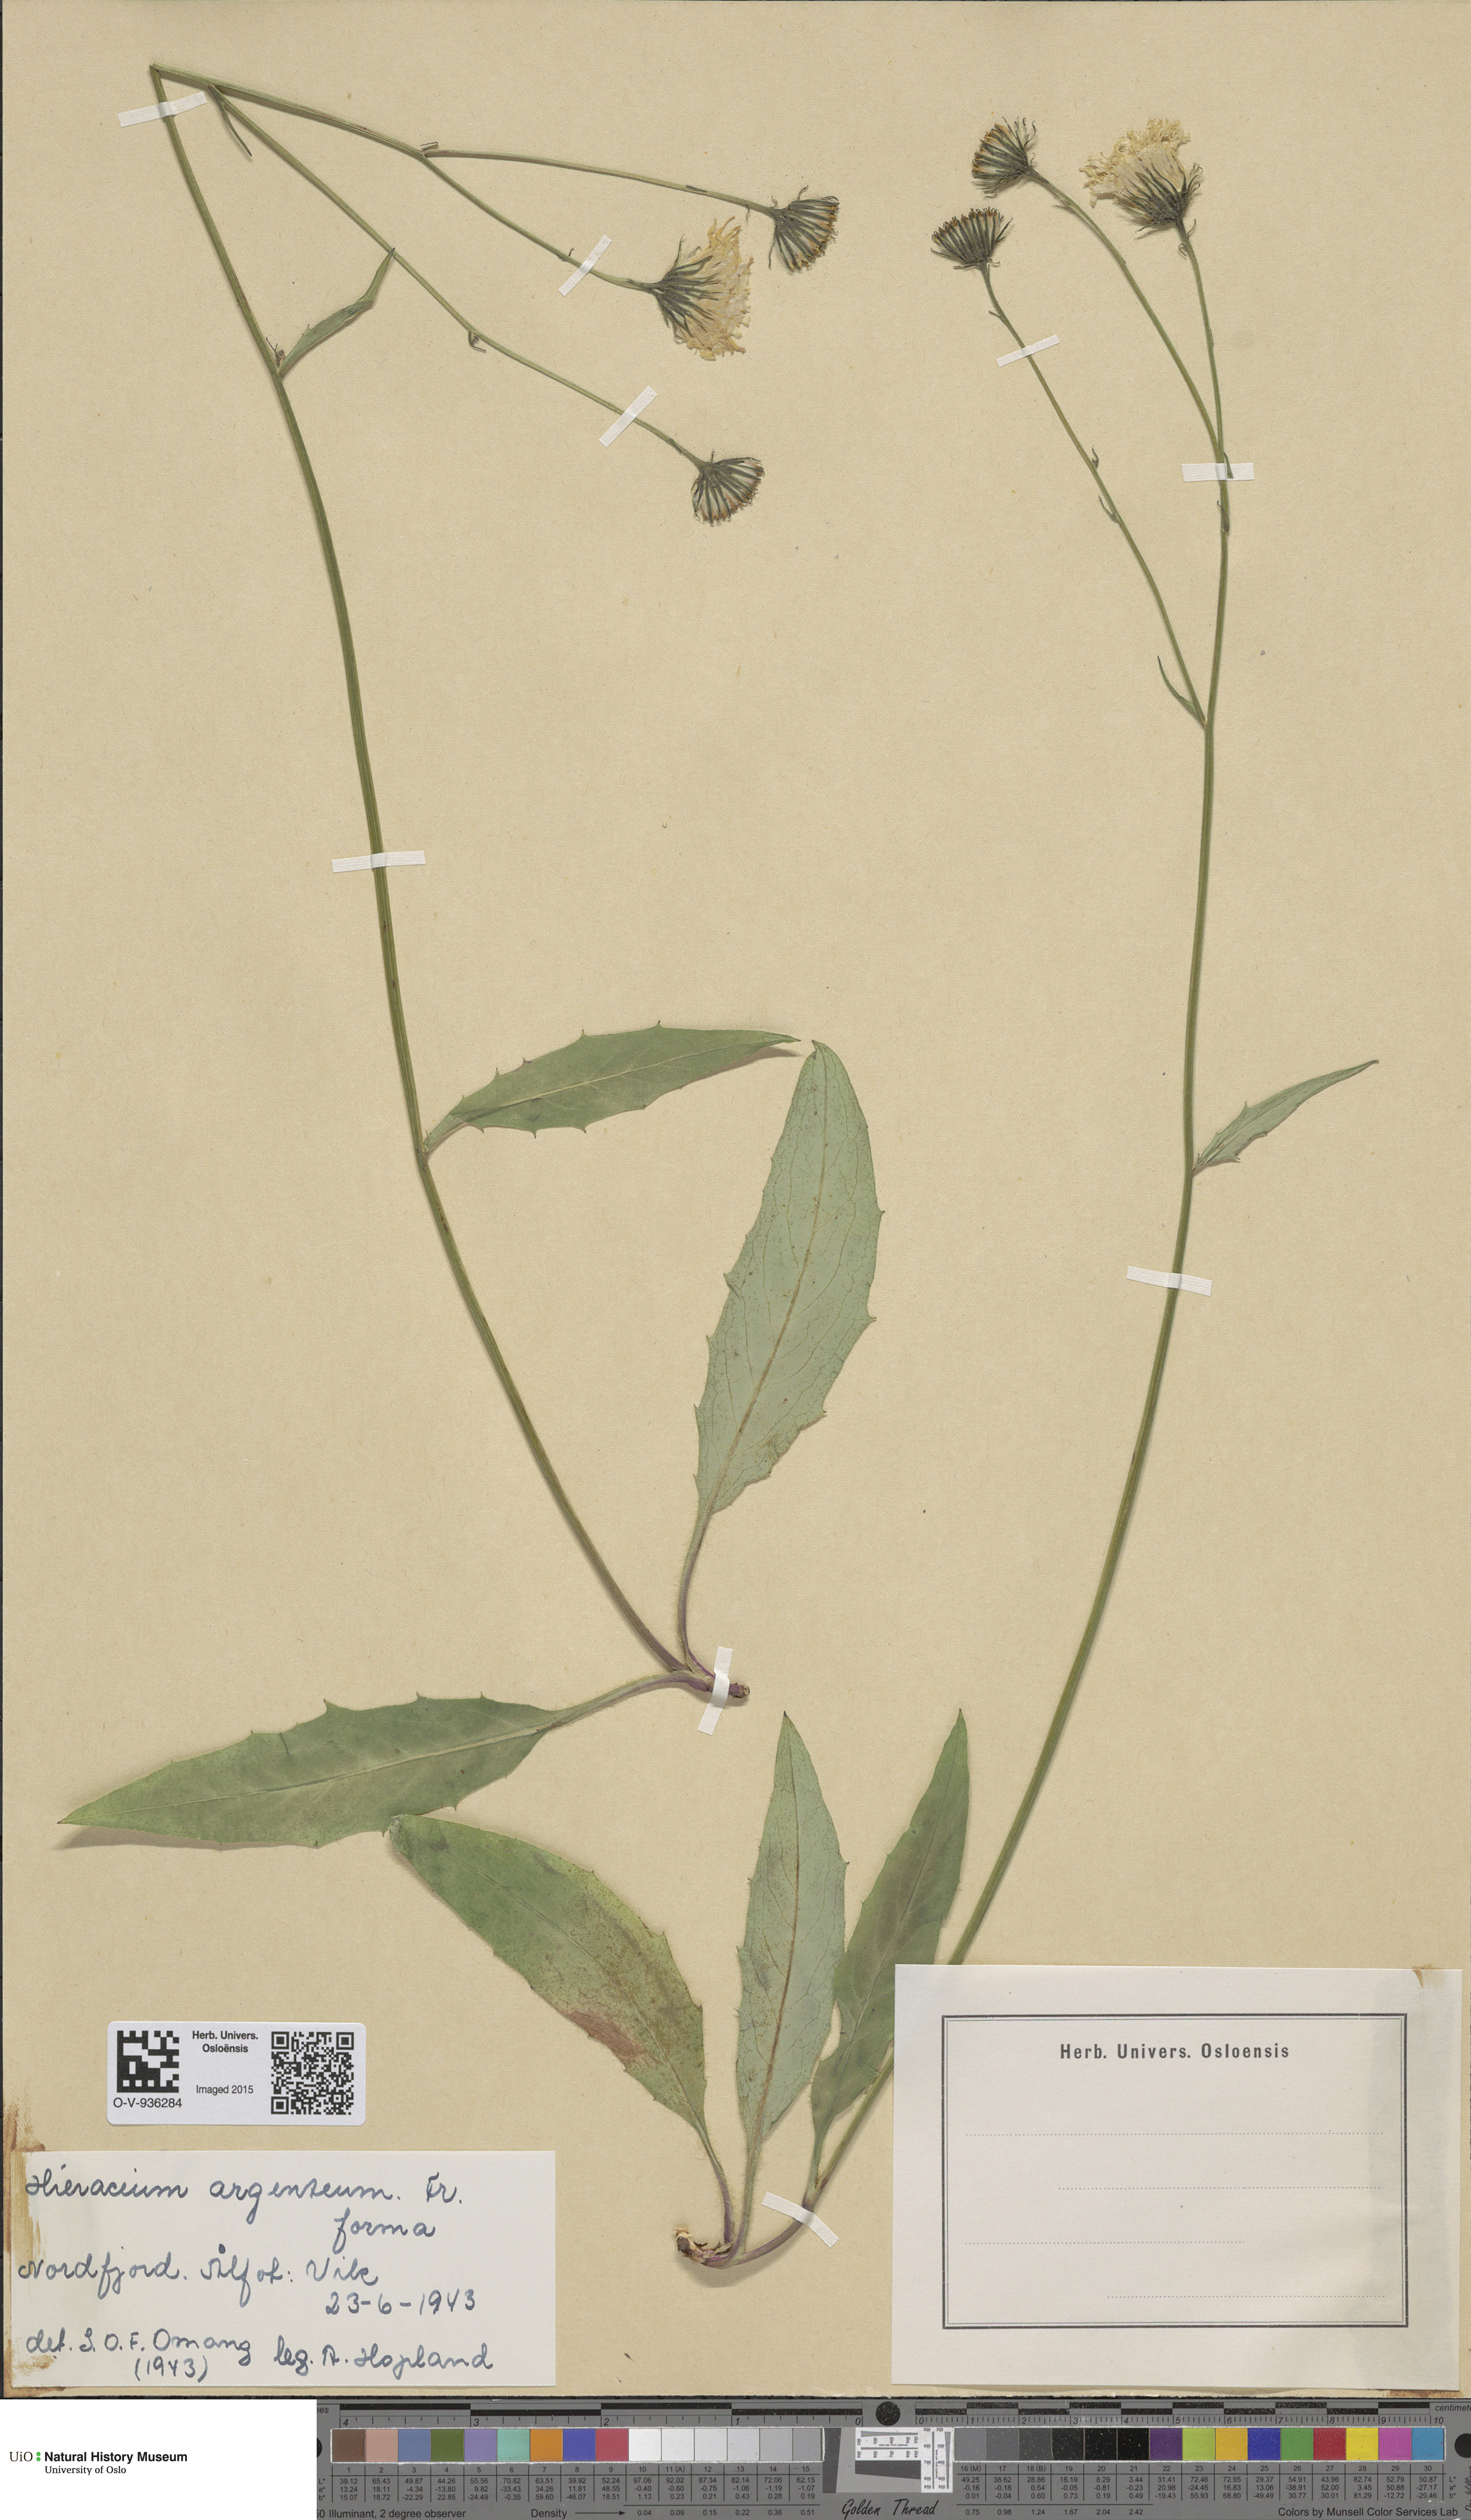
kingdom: Plantae
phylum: Tracheophyta
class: Magnoliopsida
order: Asterales
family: Asteraceae
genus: Hieracium
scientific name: Hieracium argenteum
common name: Silver hawkweed
